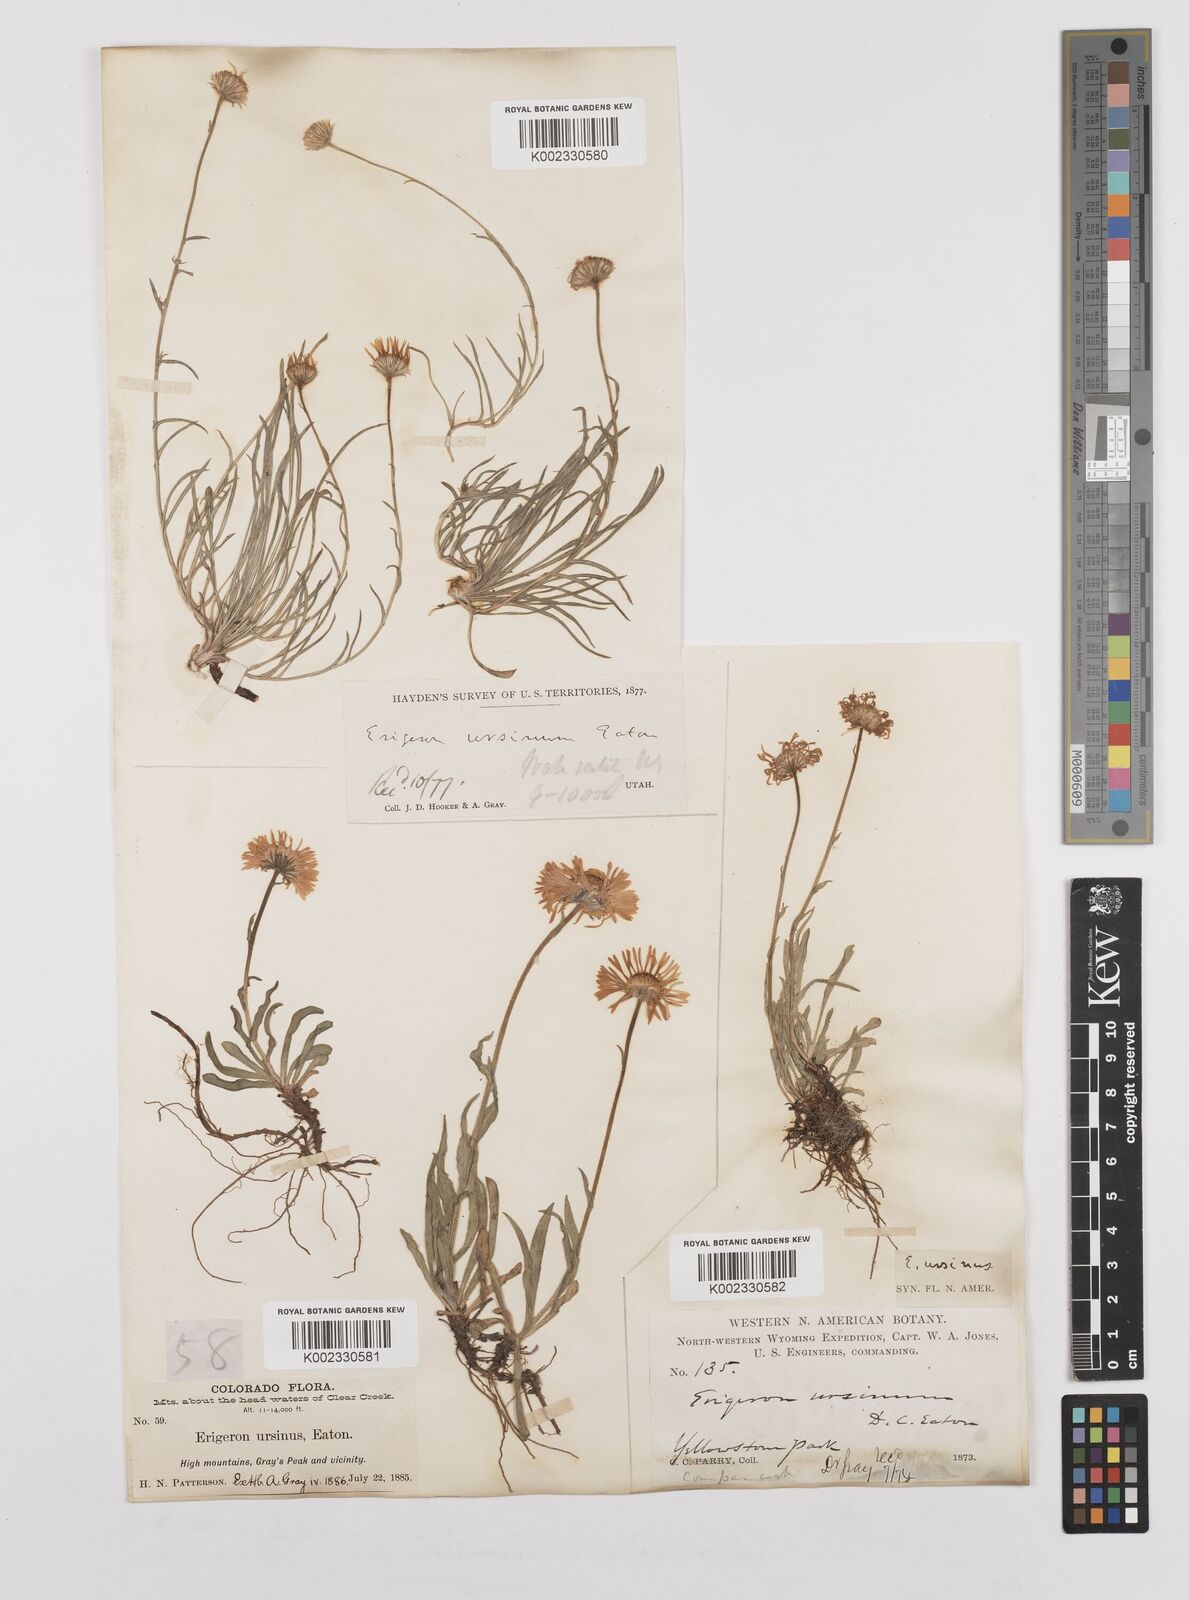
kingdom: Plantae
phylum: Tracheophyta
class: Magnoliopsida
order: Asterales
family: Asteraceae
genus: Erigeron
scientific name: Erigeron ursinus
